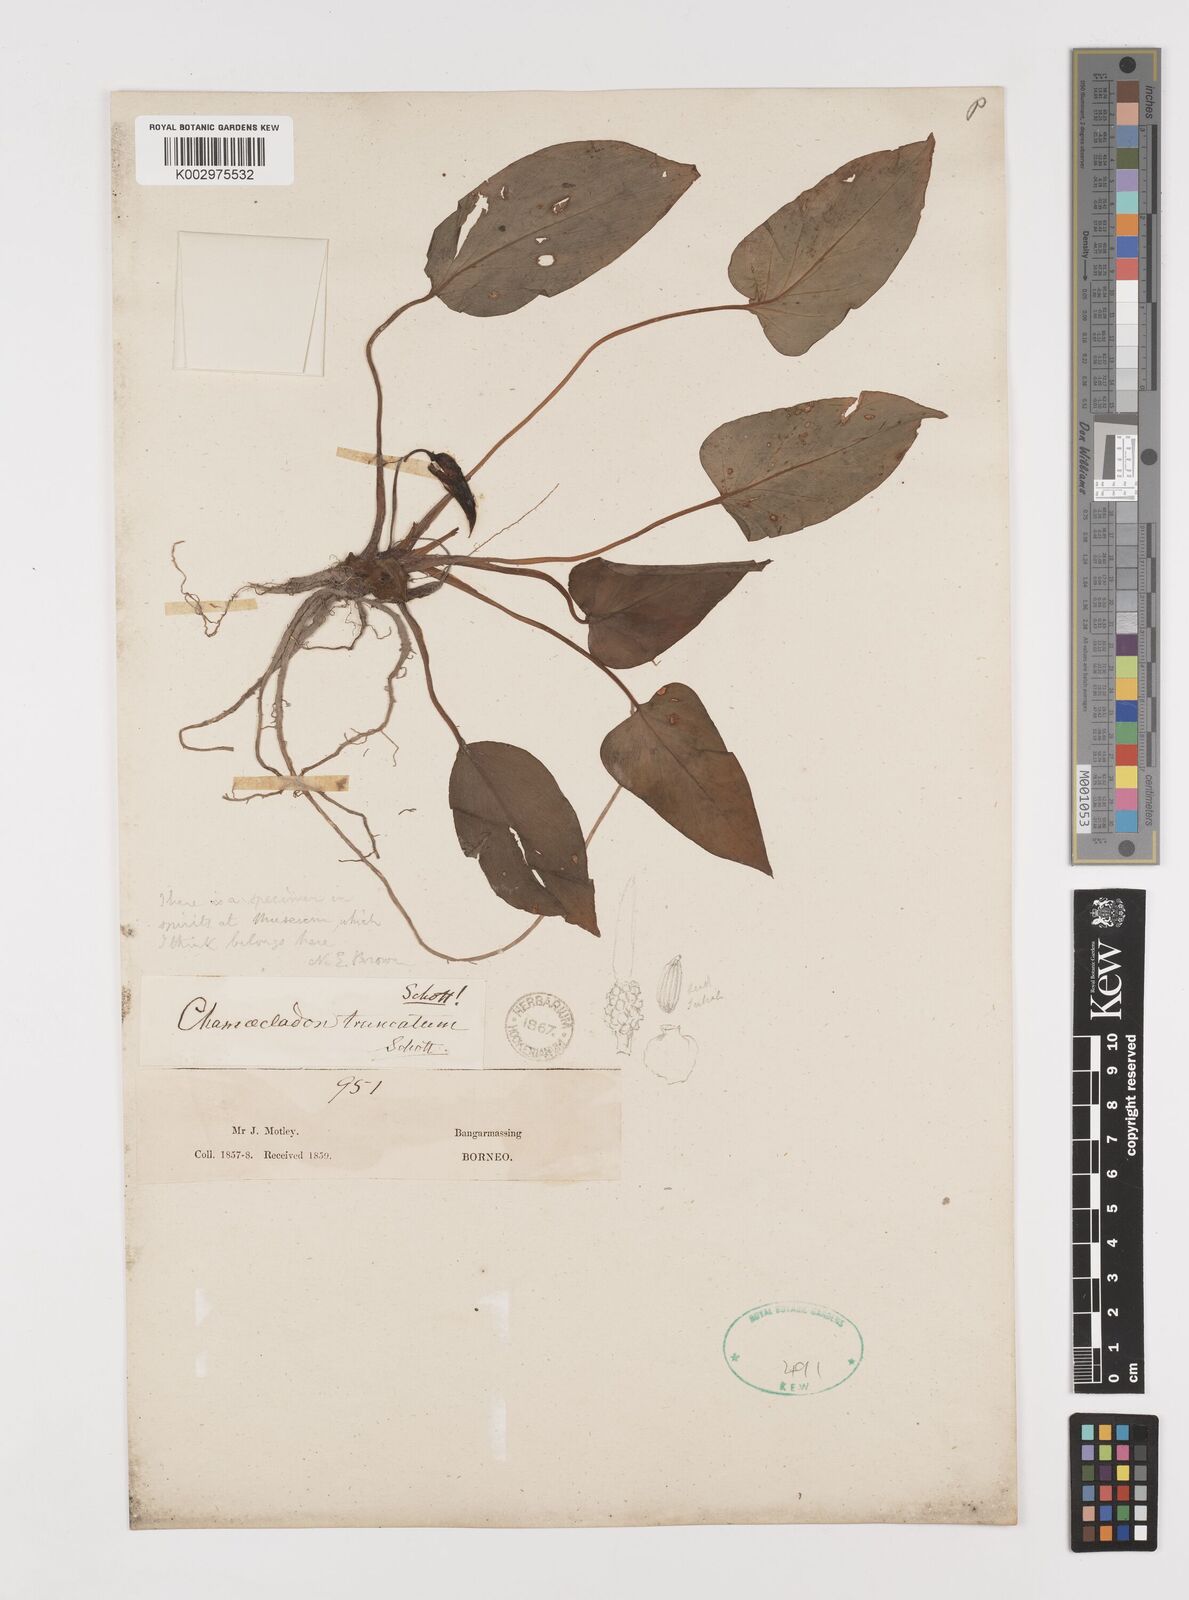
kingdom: Plantae
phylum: Tracheophyta
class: Liliopsida
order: Alismatales
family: Araceae
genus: Homalomena
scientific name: Homalomena truncata
